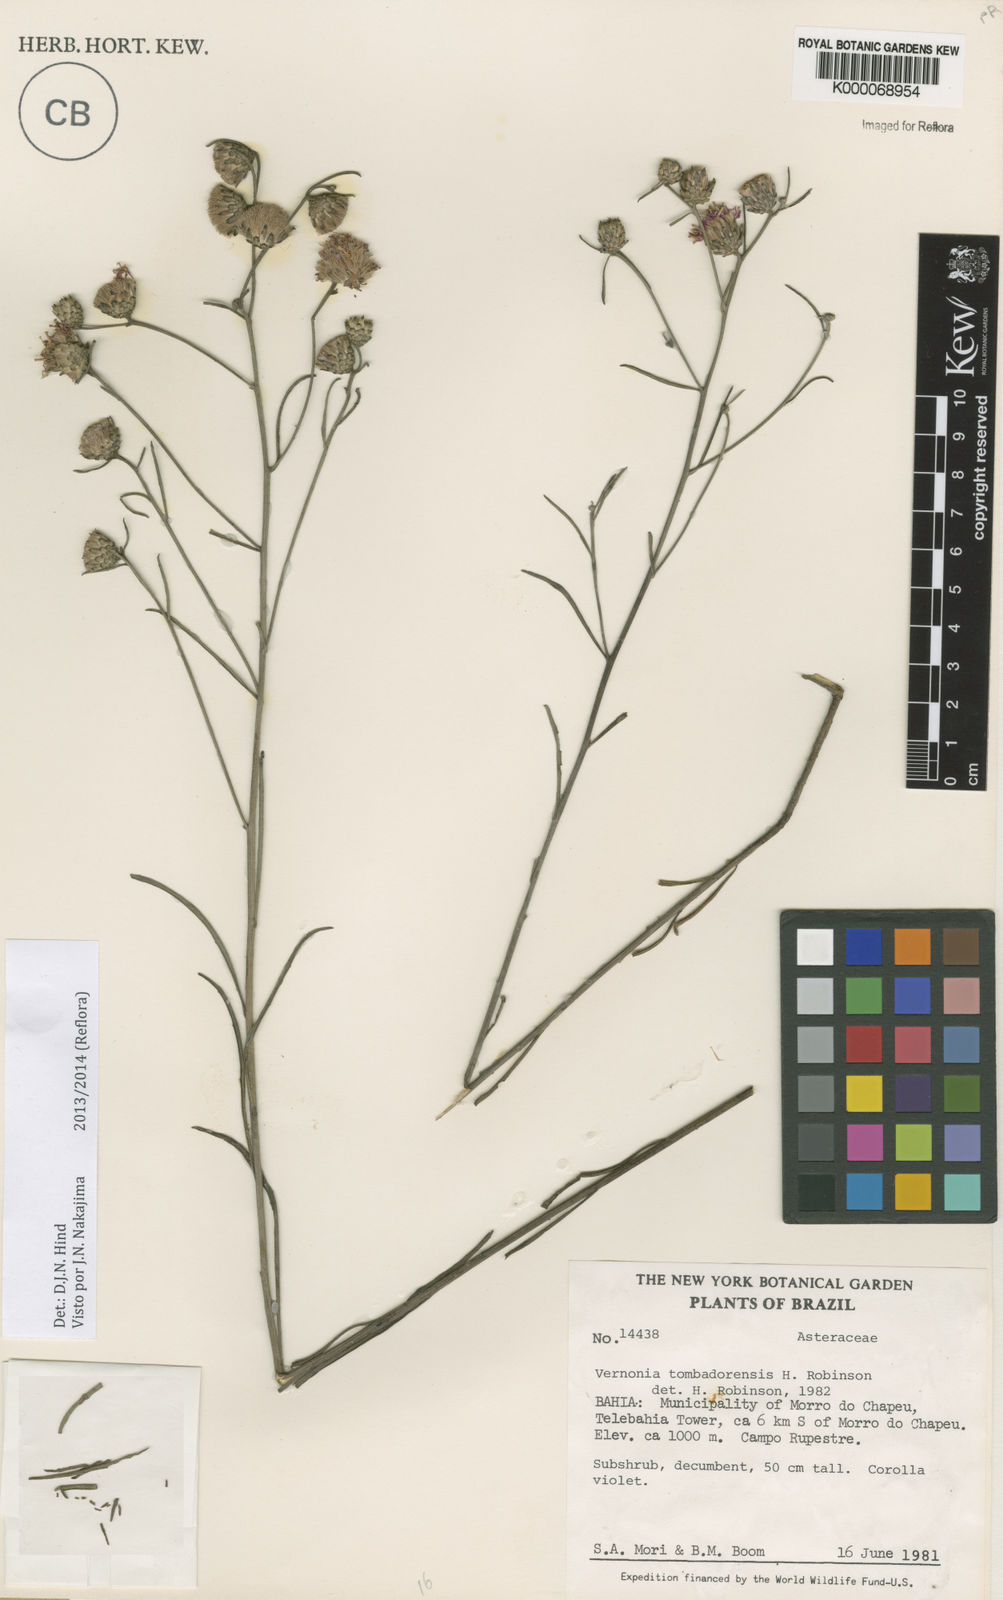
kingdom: Plantae
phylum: Tracheophyta
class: Magnoliopsida
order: Asterales
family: Asteraceae
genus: Lepidaploa
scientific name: Lepidaploa tombadorensis
